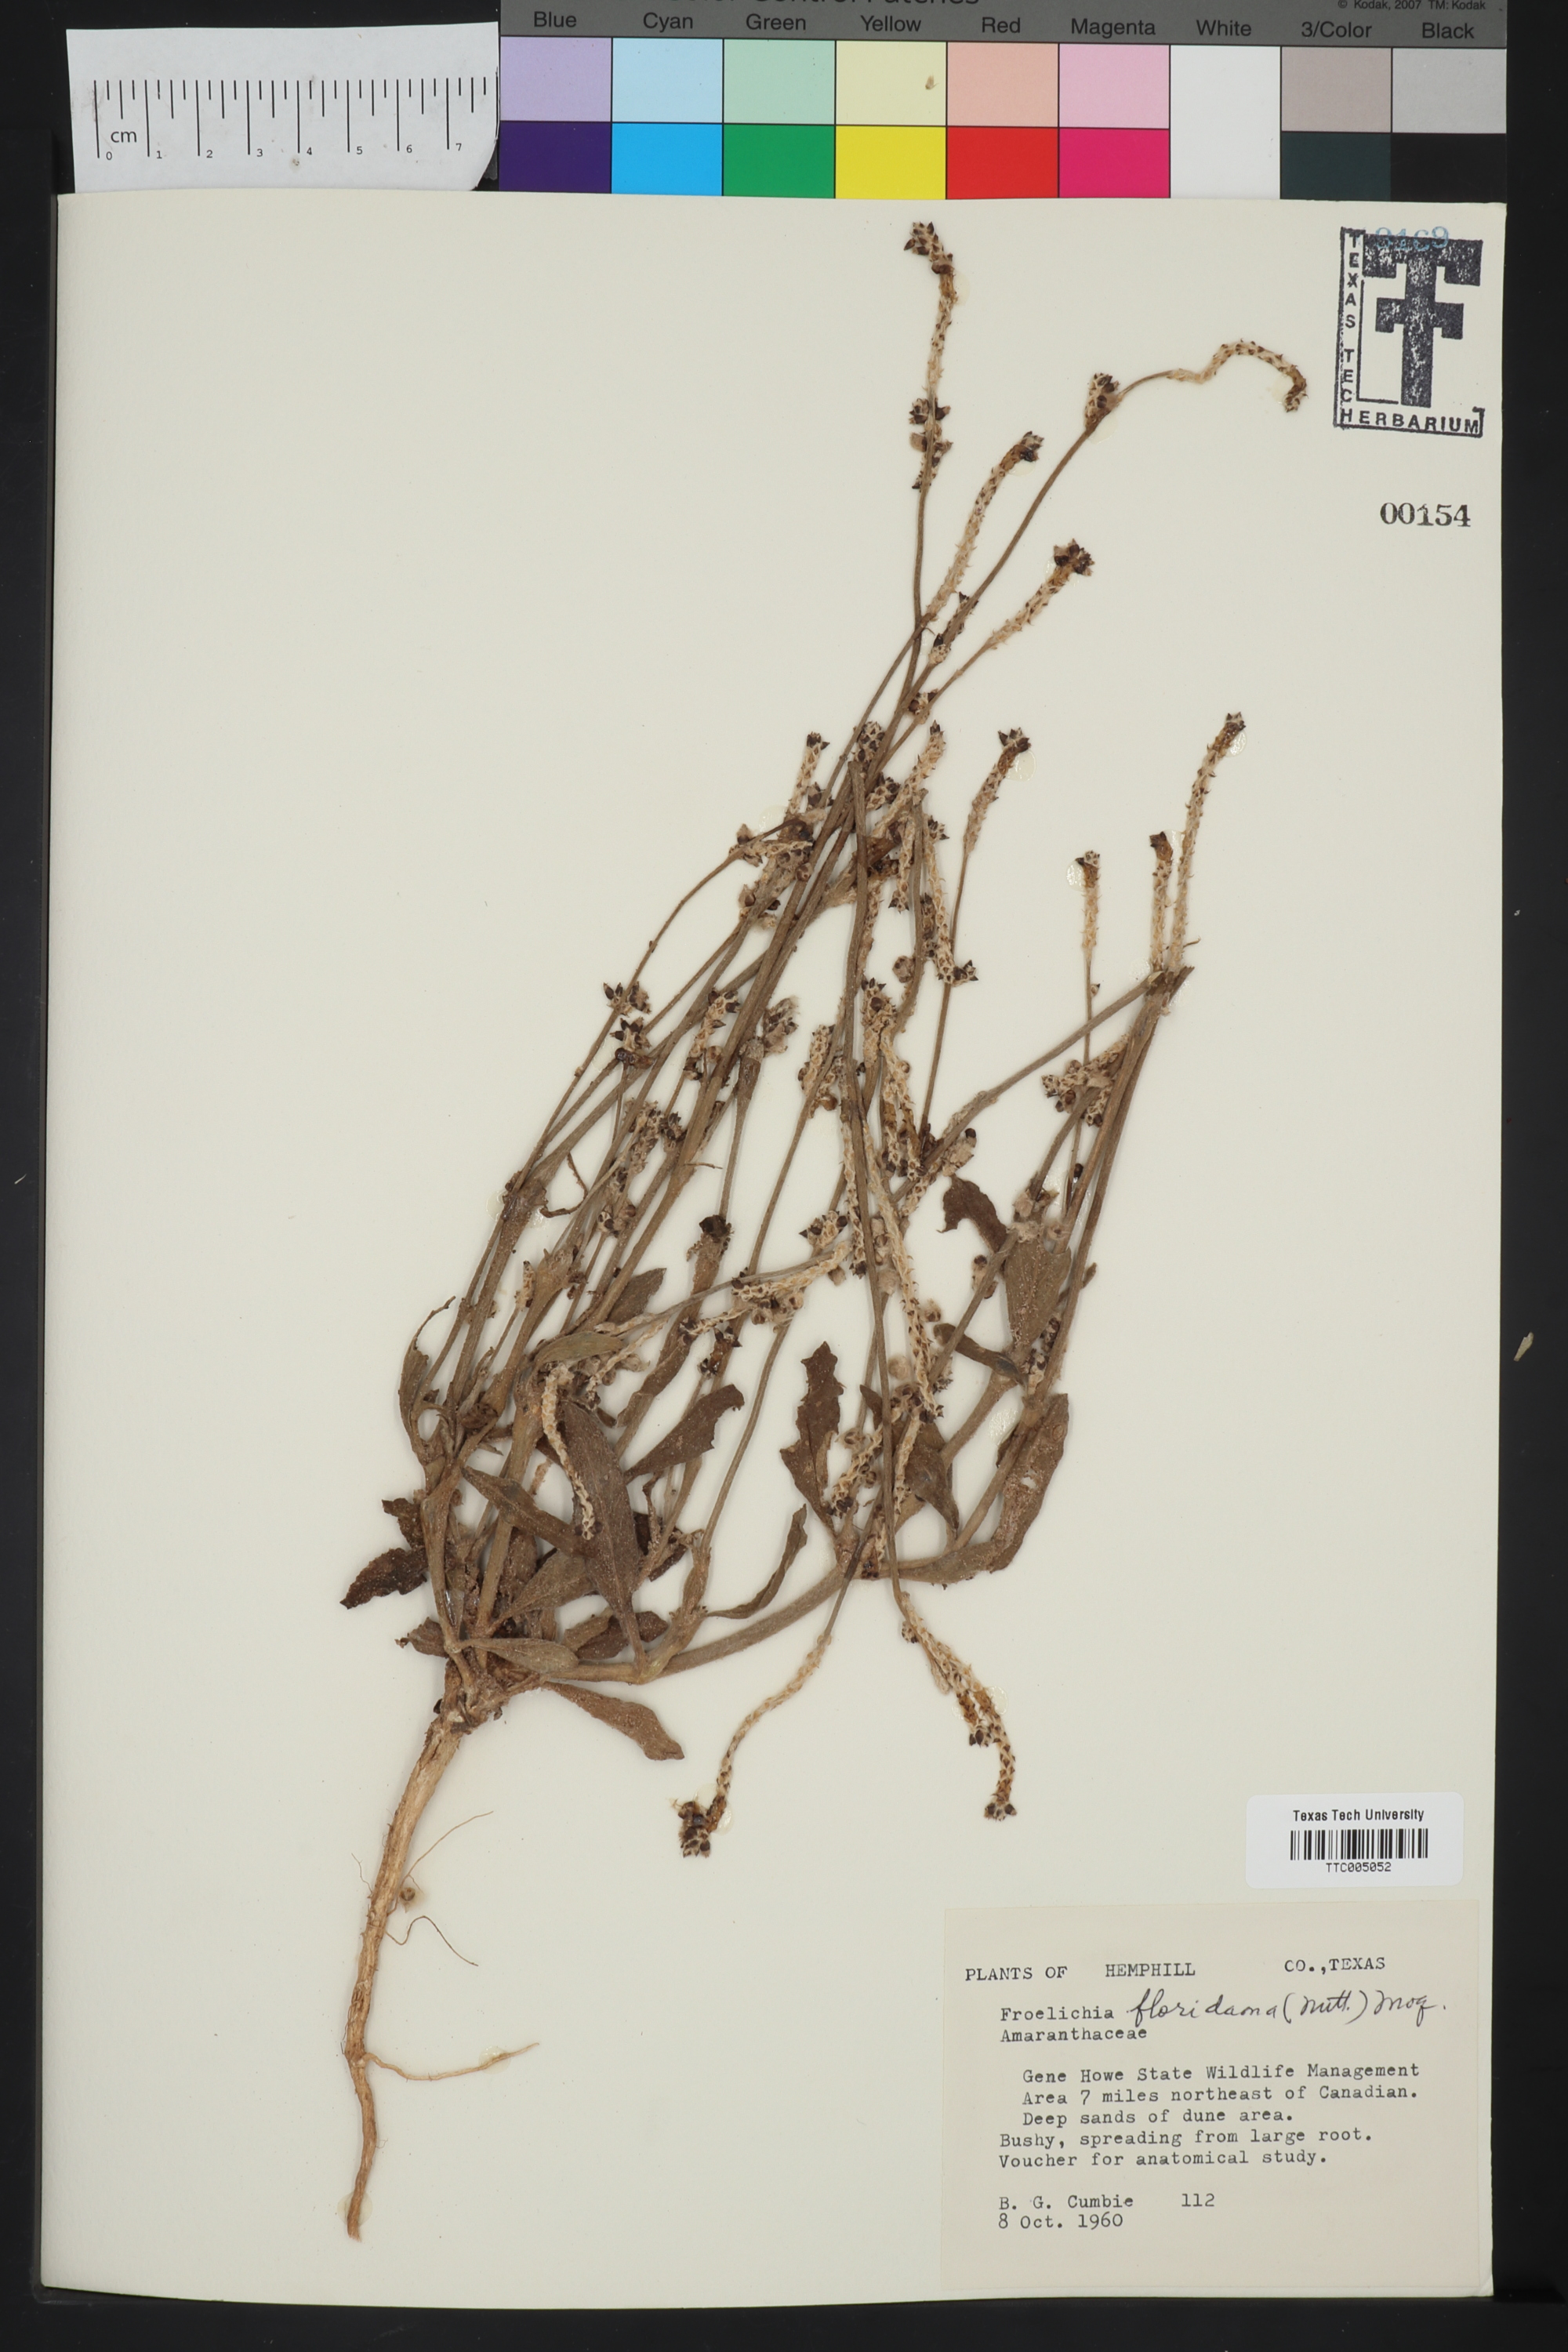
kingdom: Plantae
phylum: Tracheophyta
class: Magnoliopsida
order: Caryophyllales
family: Amaranthaceae
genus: Froelichia
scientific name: Froelichia floridana
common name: Florida snake-cotton
